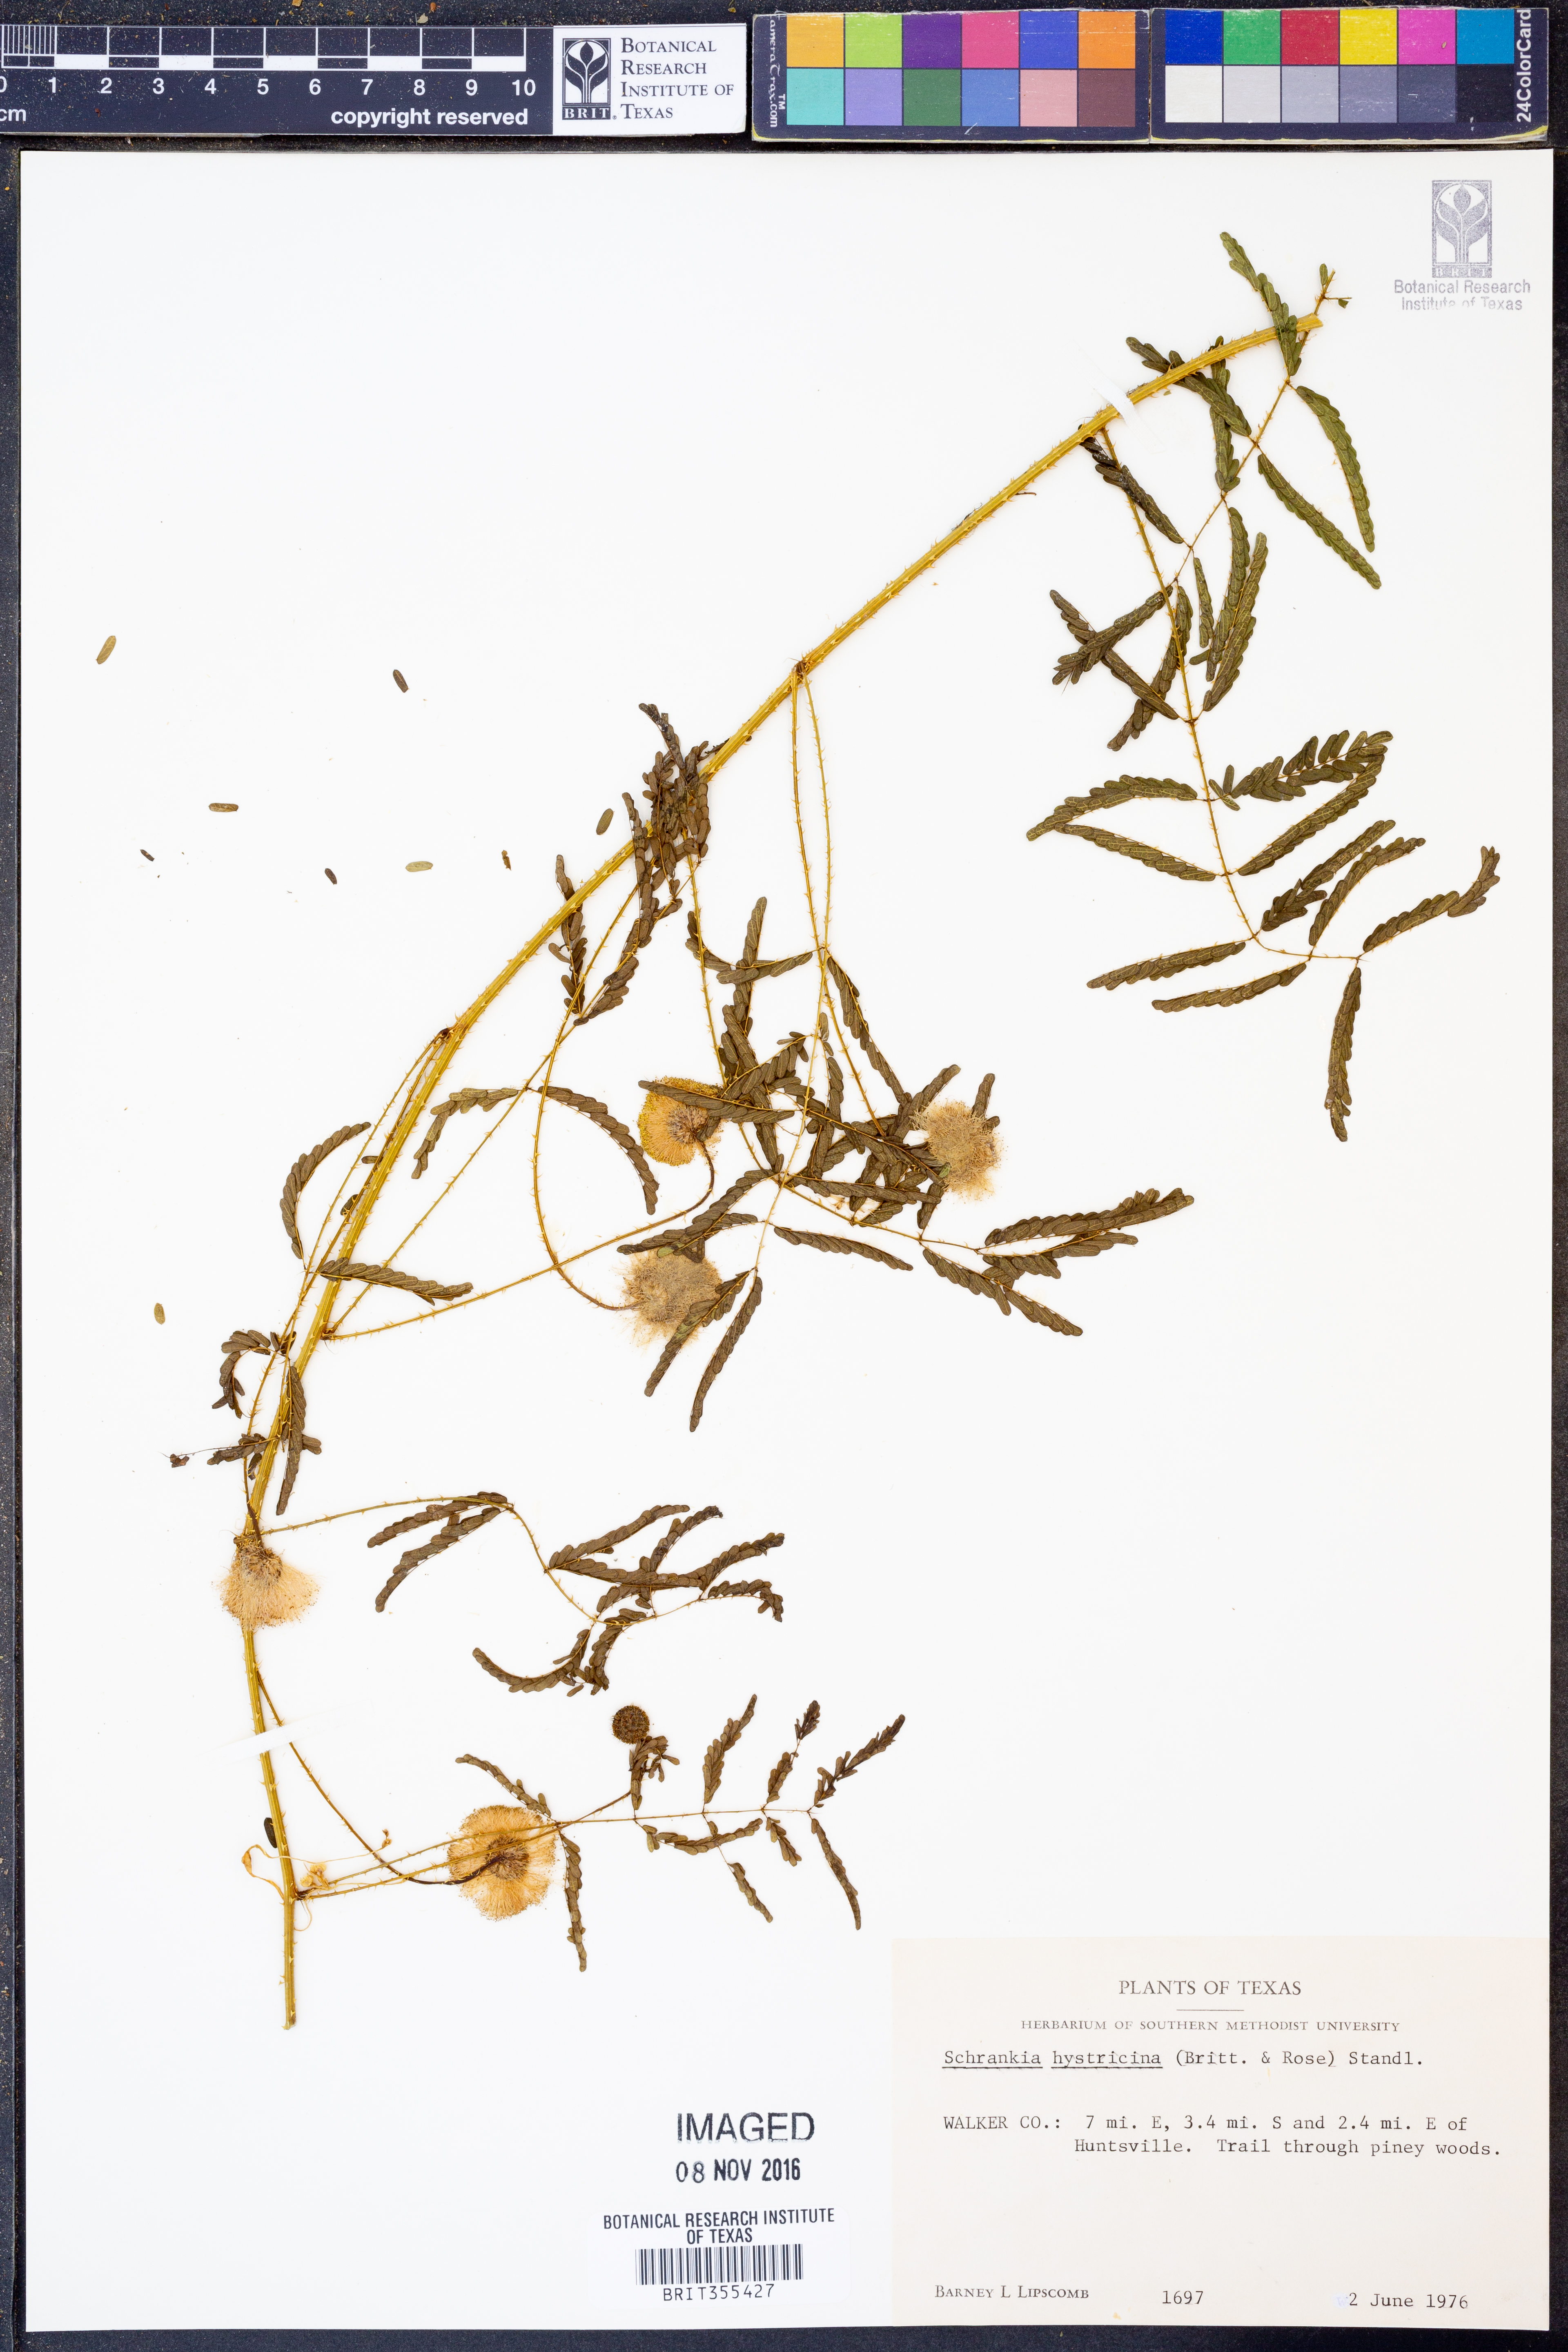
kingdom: Plantae
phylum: Tracheophyta
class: Magnoliopsida
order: Fabales
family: Fabaceae
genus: Mimosa
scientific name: Mimosa hystricina
